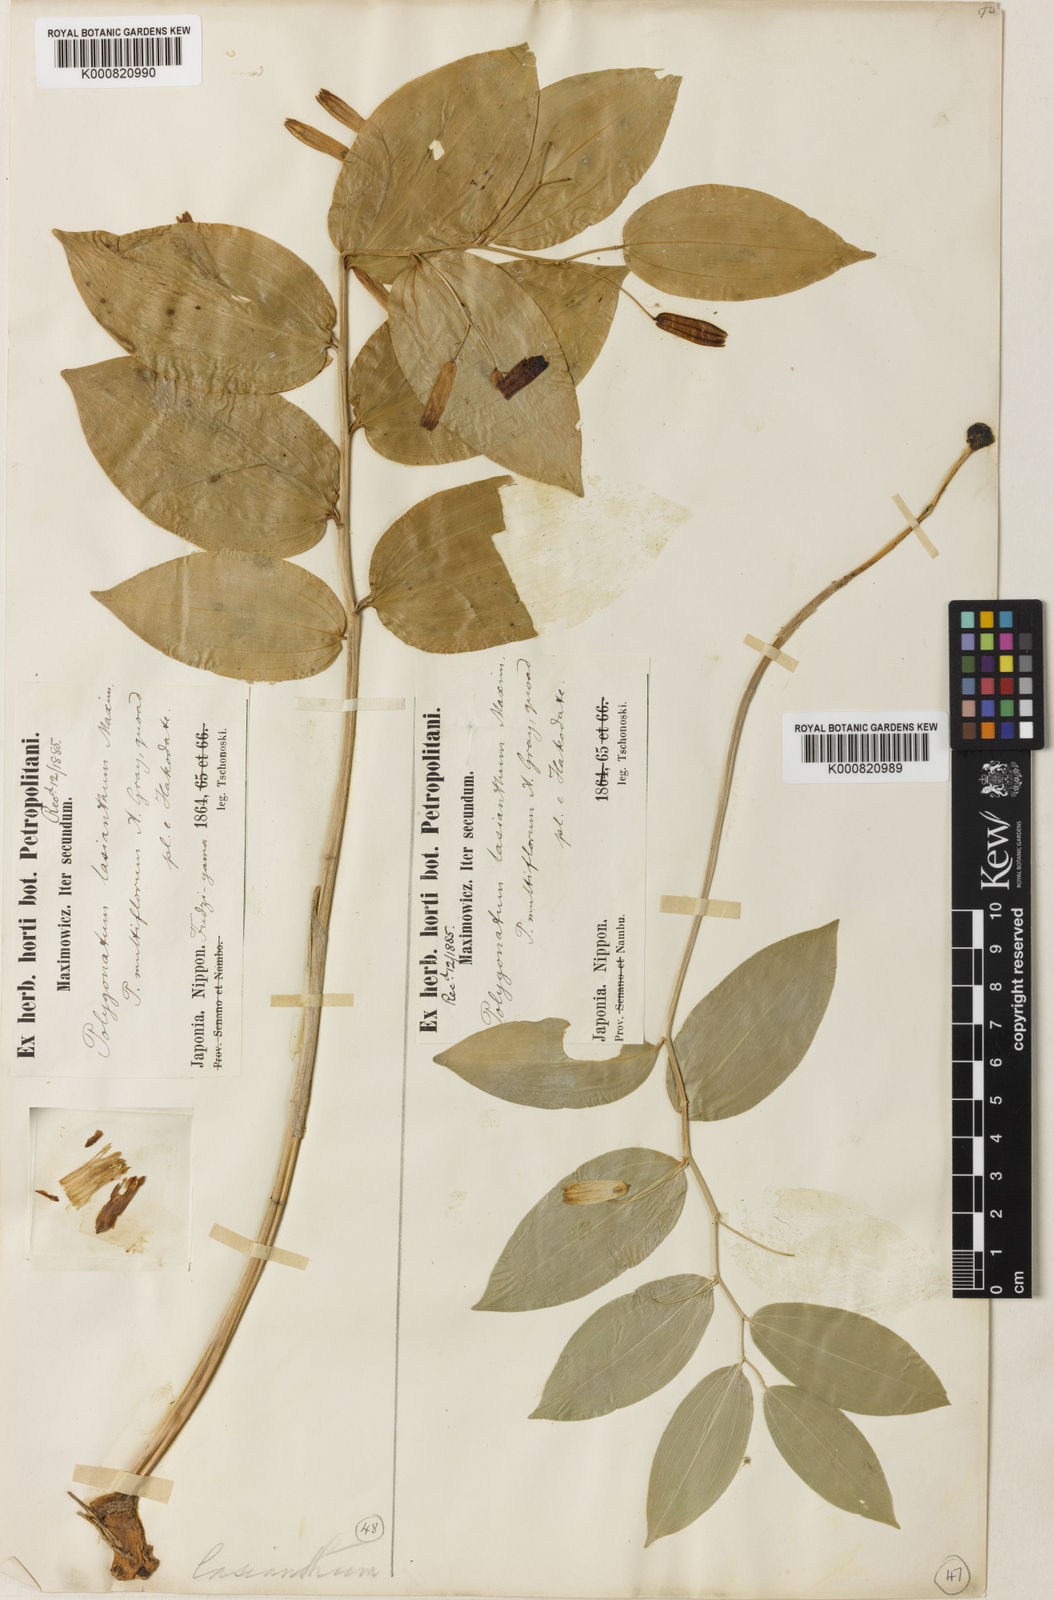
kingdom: Plantae
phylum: Tracheophyta
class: Liliopsida
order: Asparagales
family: Asparagaceae
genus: Polygonatum
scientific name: Polygonatum lasianthum
